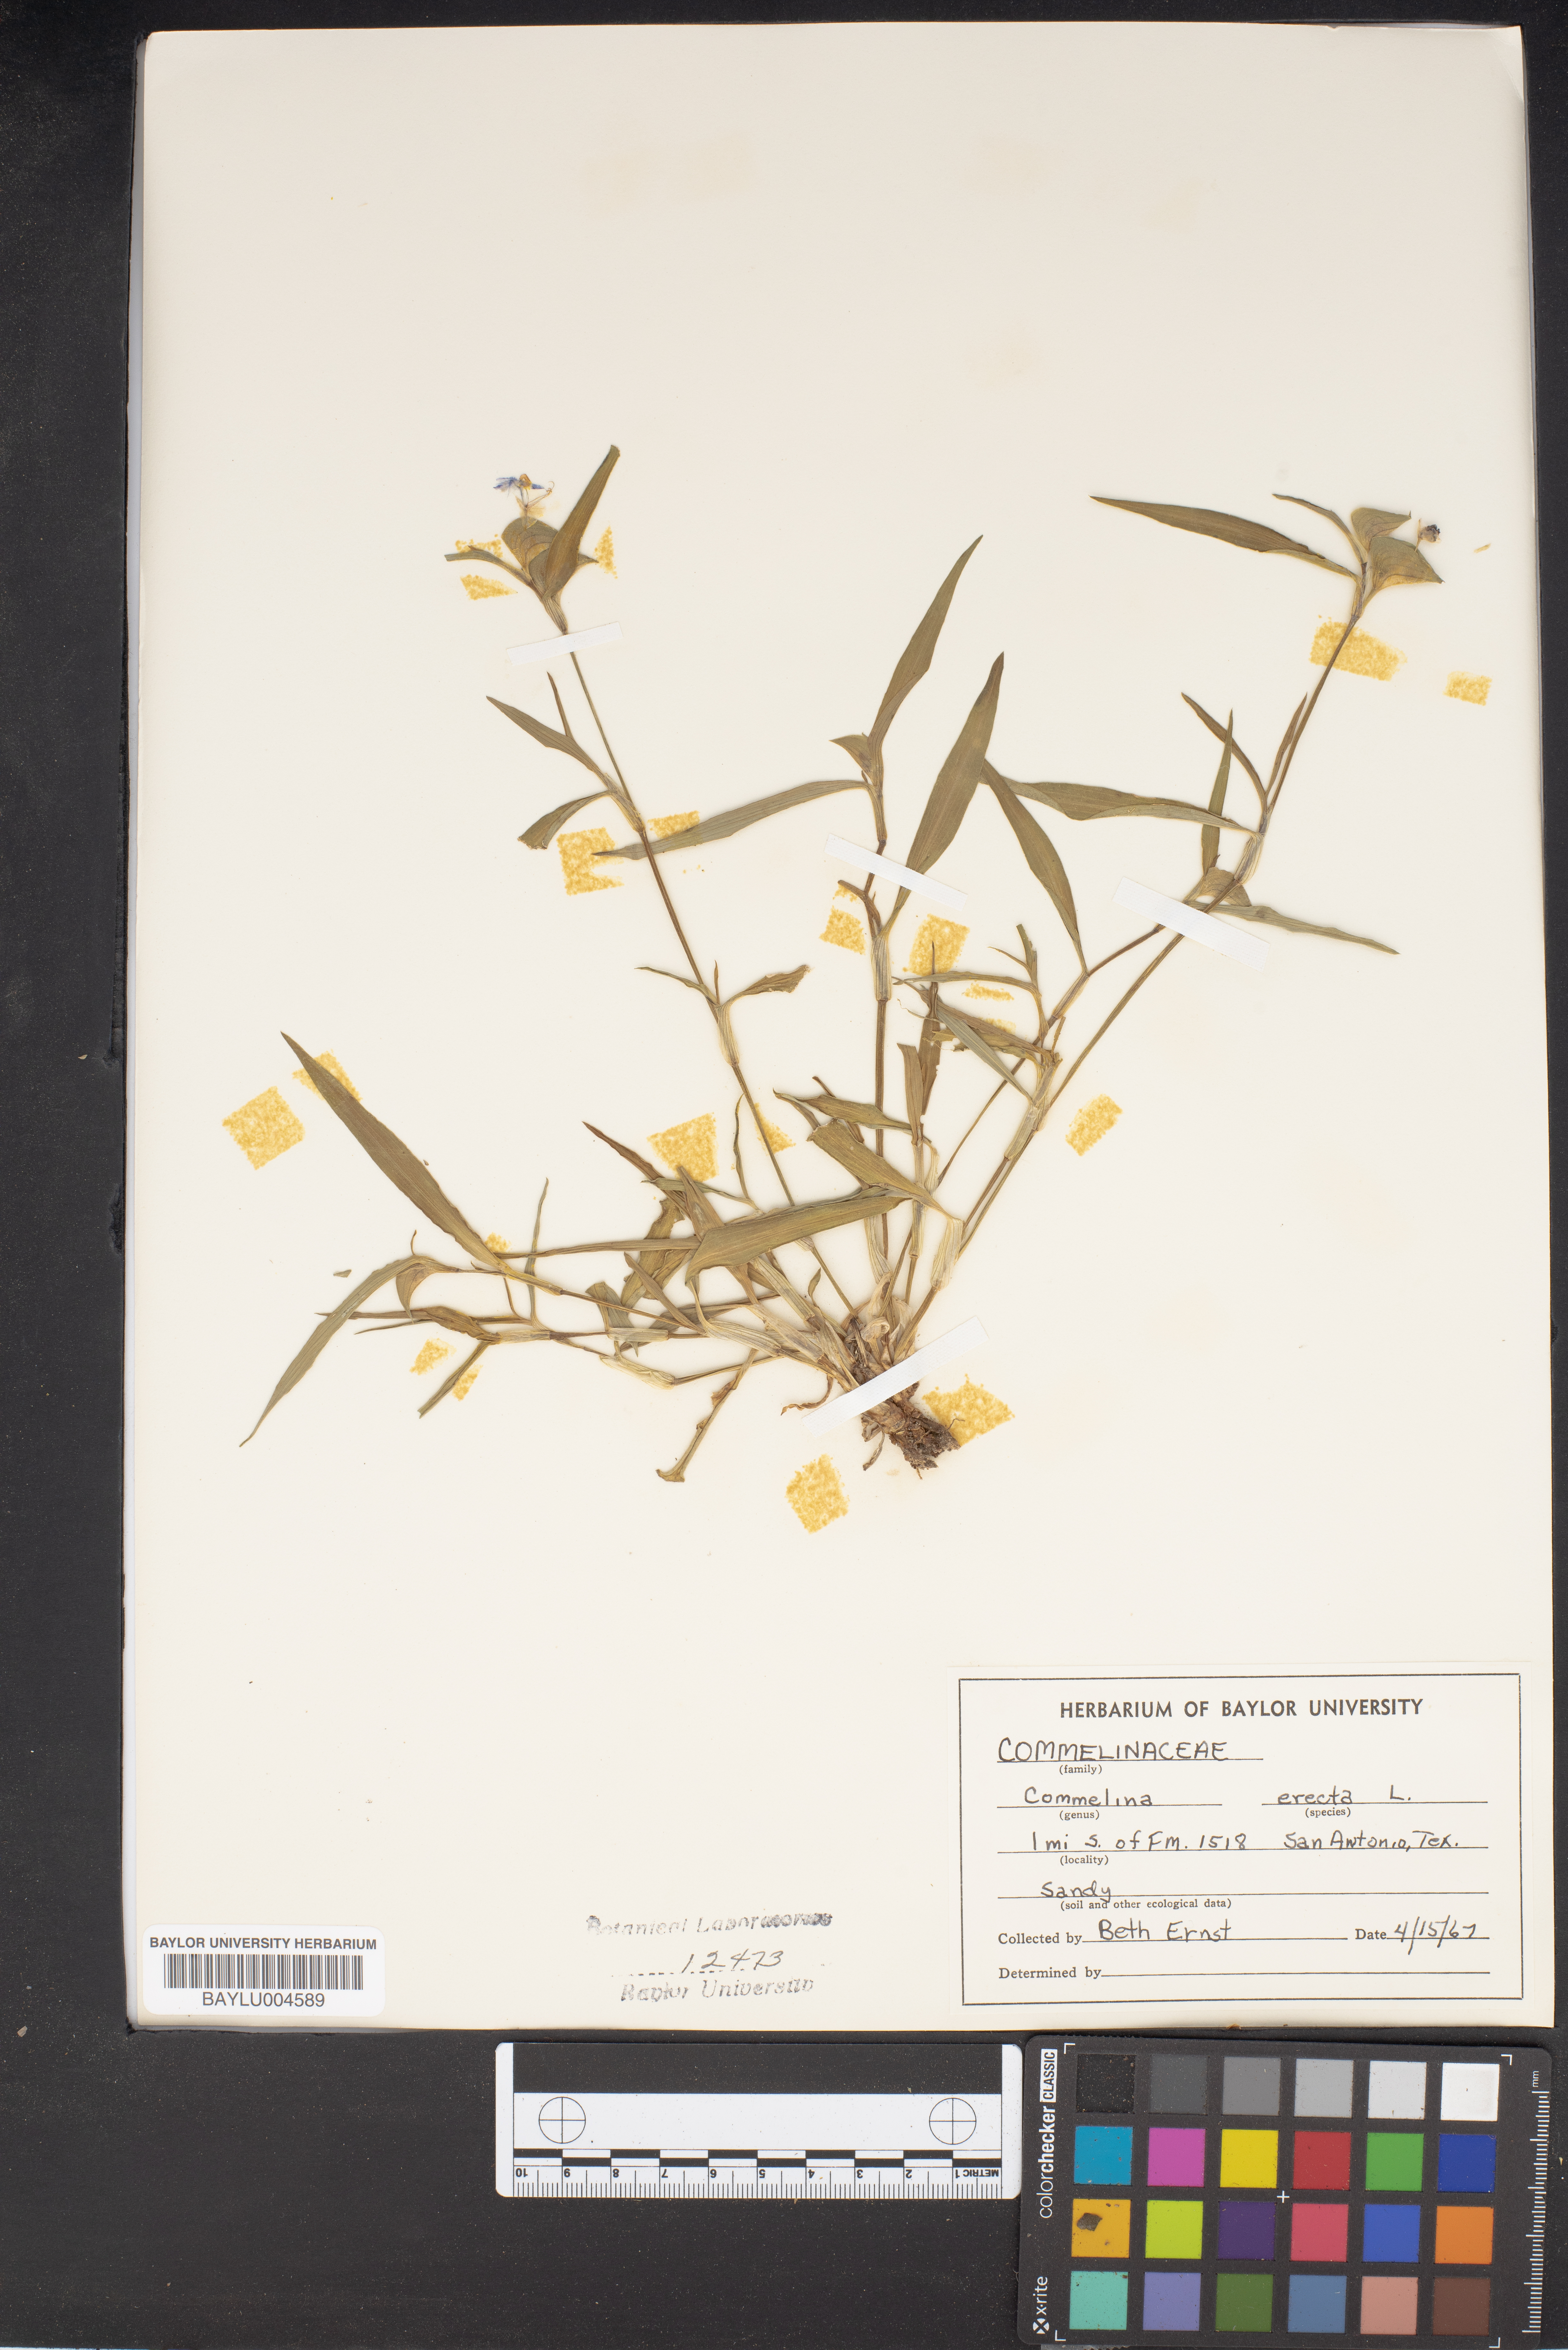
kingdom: Plantae
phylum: Tracheophyta
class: Liliopsida
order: Commelinales
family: Commelinaceae
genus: Commelina
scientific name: Commelina erecta
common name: Blousel blommetjie
